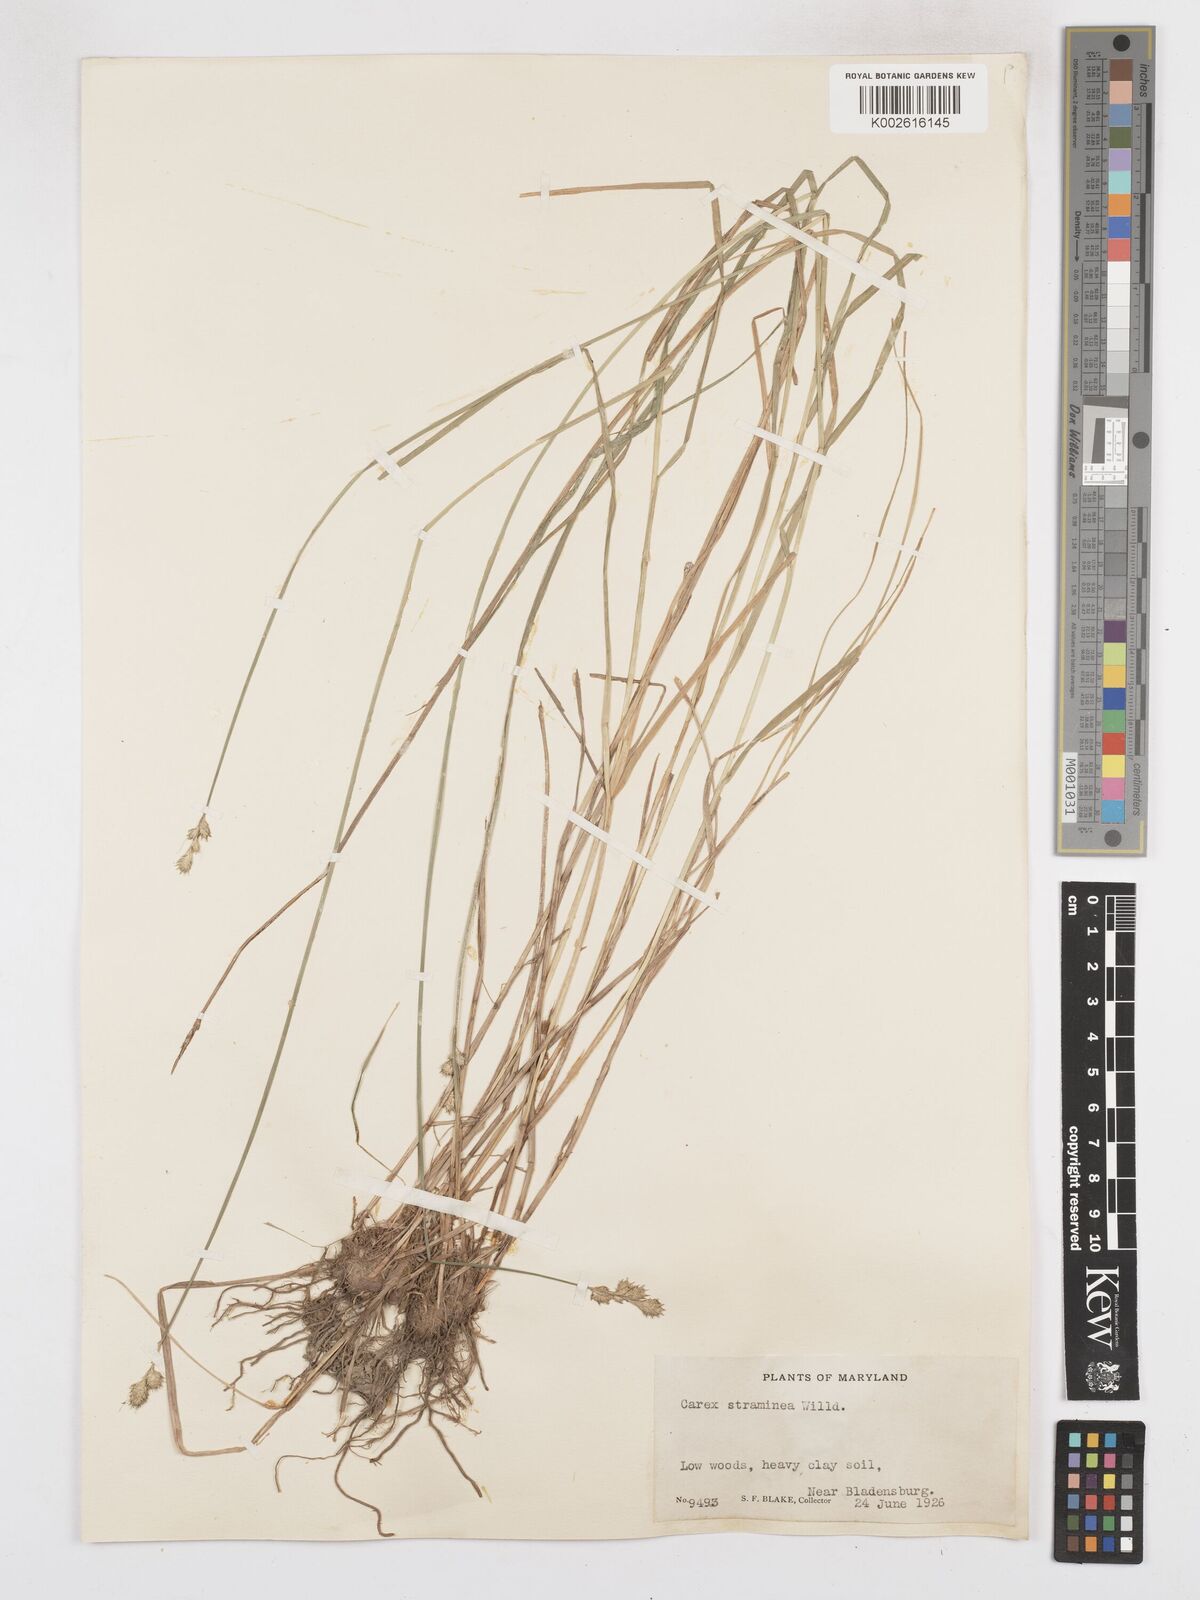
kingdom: Plantae
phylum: Tracheophyta
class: Liliopsida
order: Poales
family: Cyperaceae
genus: Carex
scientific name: Carex brevior
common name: Brevior sedge
